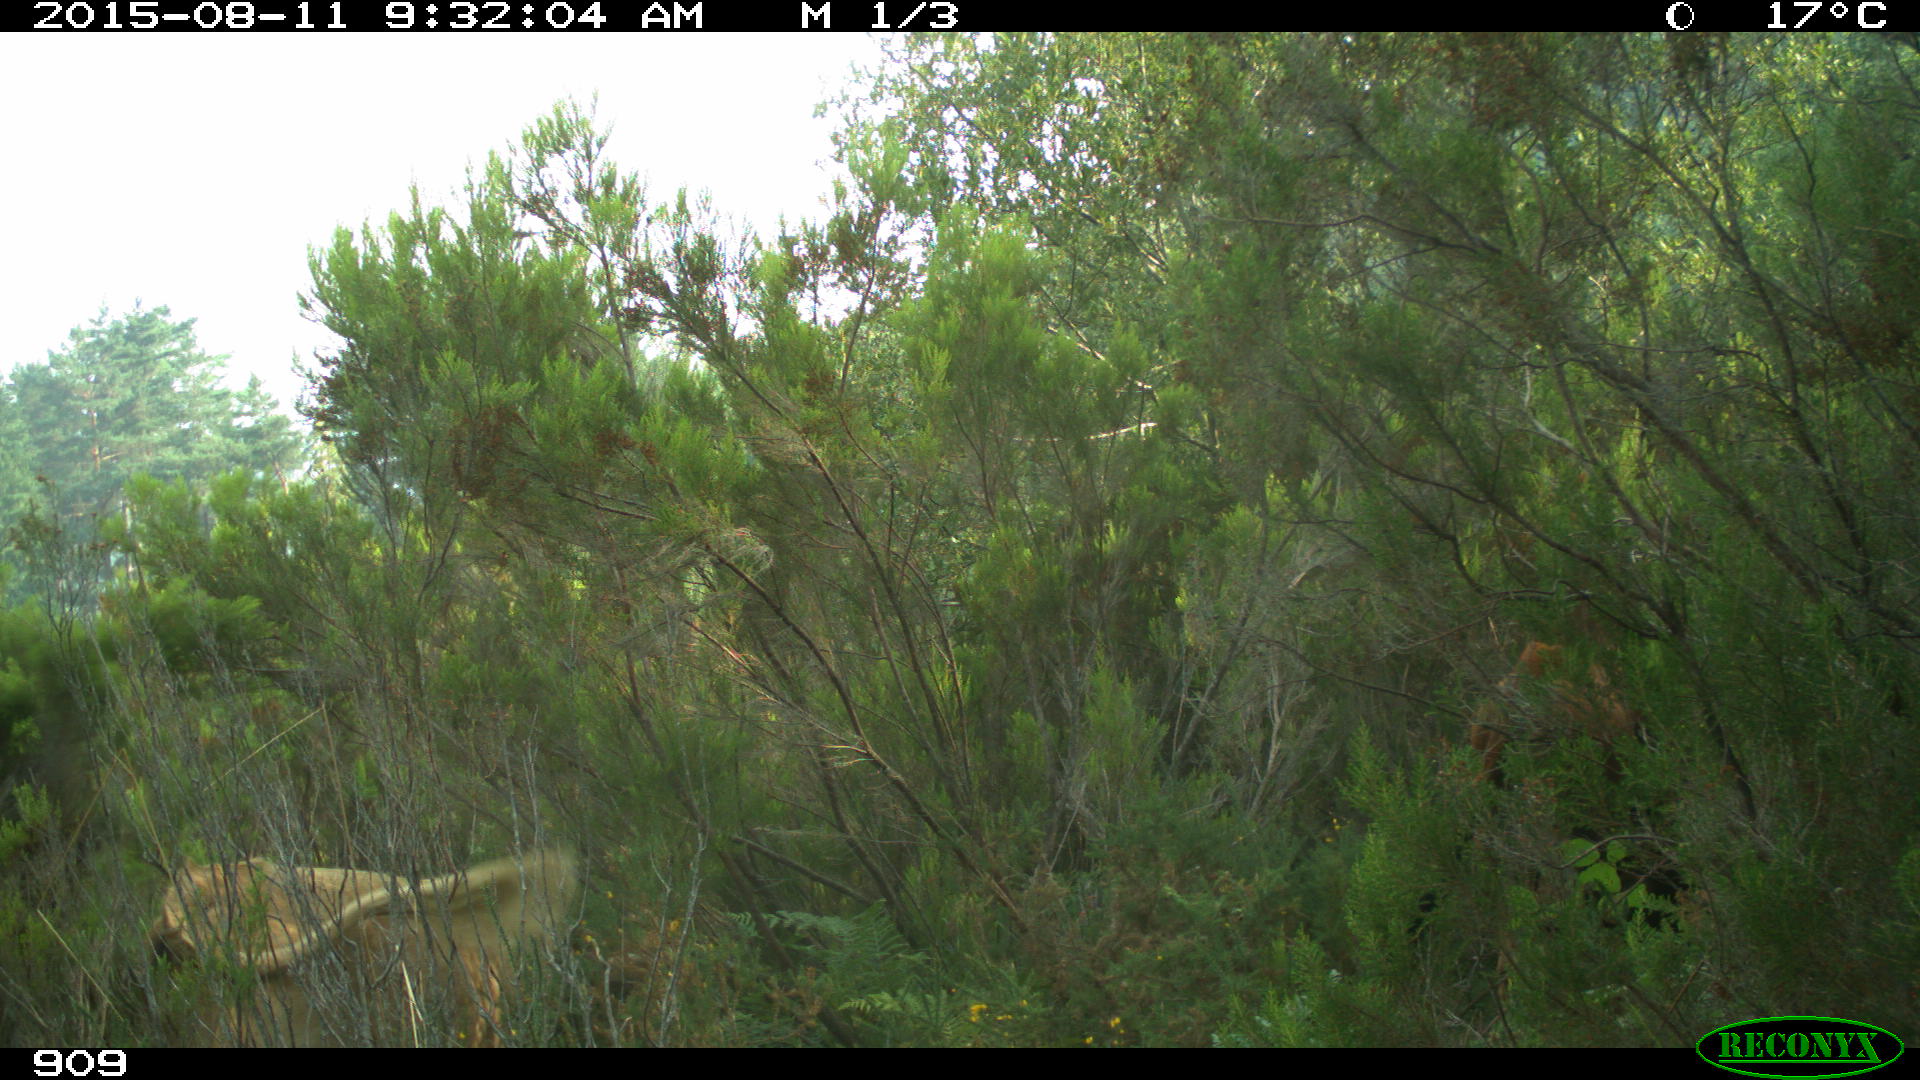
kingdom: Animalia
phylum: Chordata
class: Mammalia
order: Artiodactyla
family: Bovidae
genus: Bos
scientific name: Bos taurus
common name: Domesticated cattle
